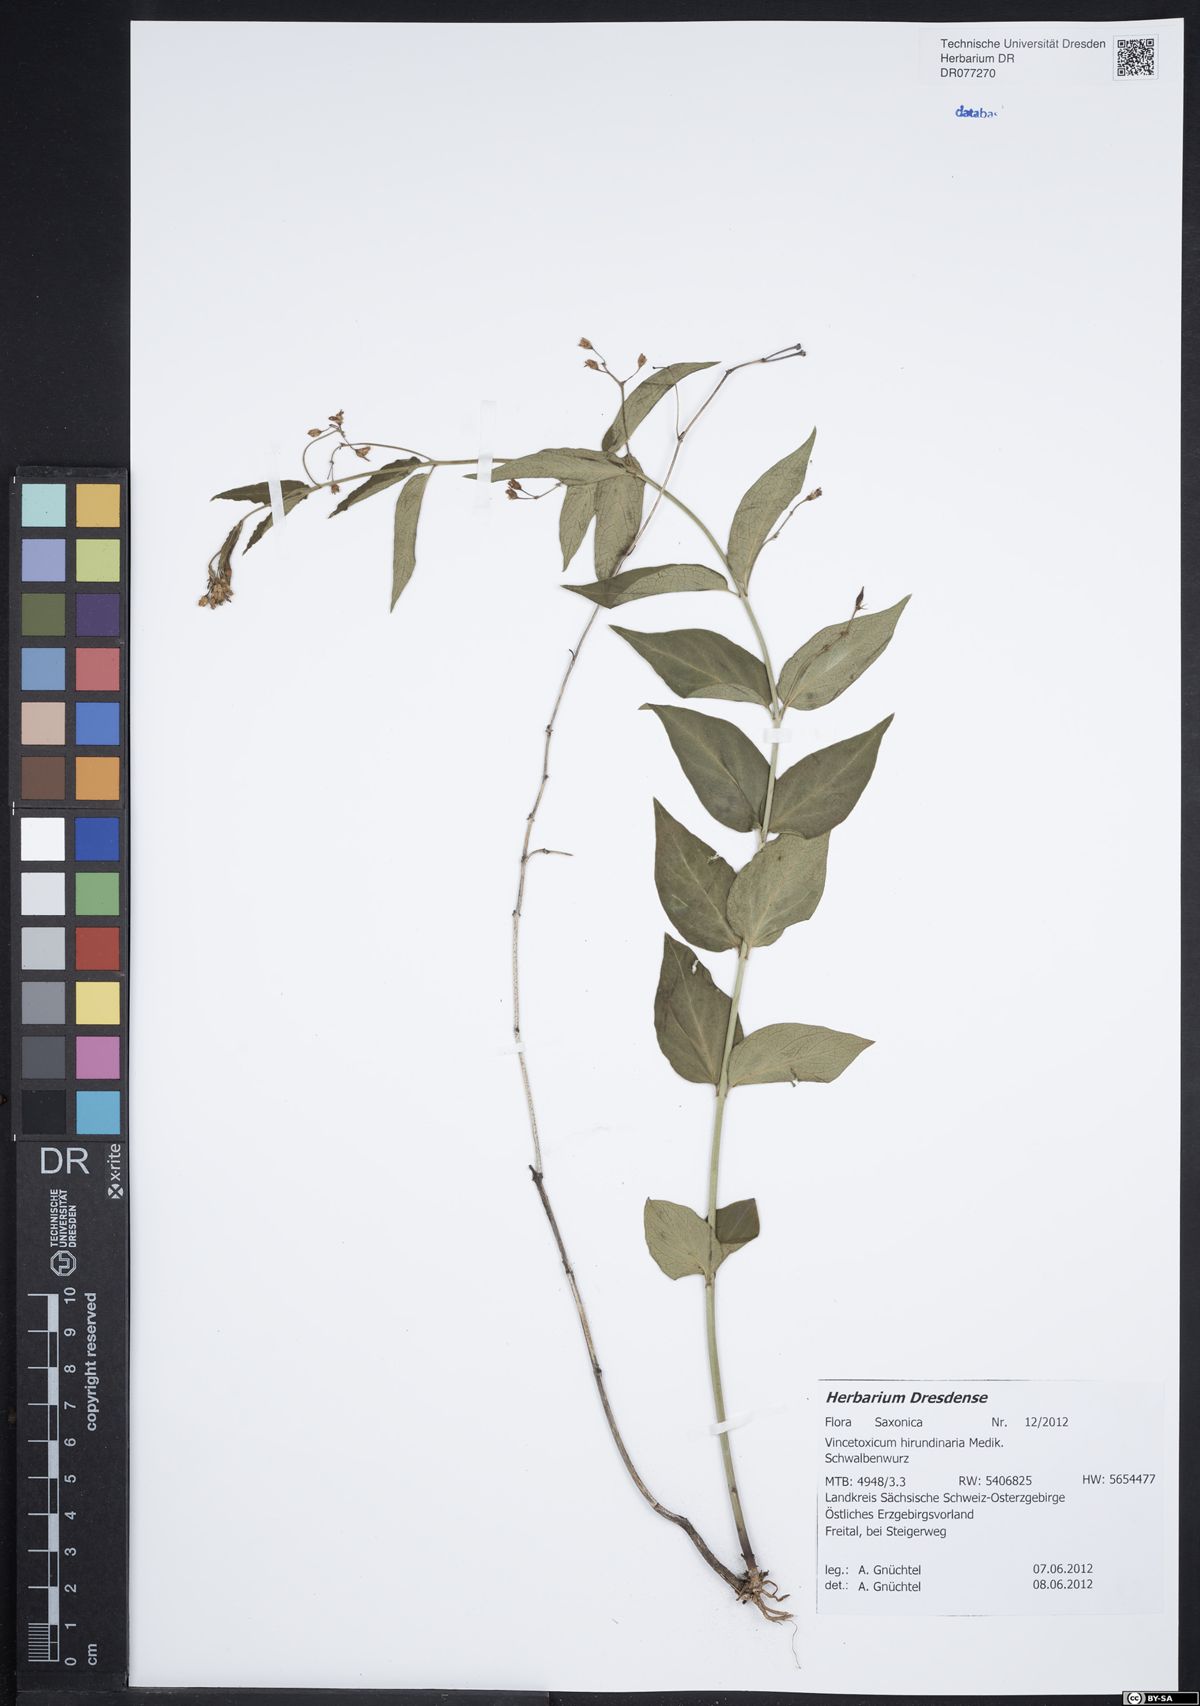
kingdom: Plantae
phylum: Tracheophyta
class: Magnoliopsida
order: Gentianales
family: Apocynaceae
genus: Vincetoxicum
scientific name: Vincetoxicum hirundinaria
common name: White swallowwort
